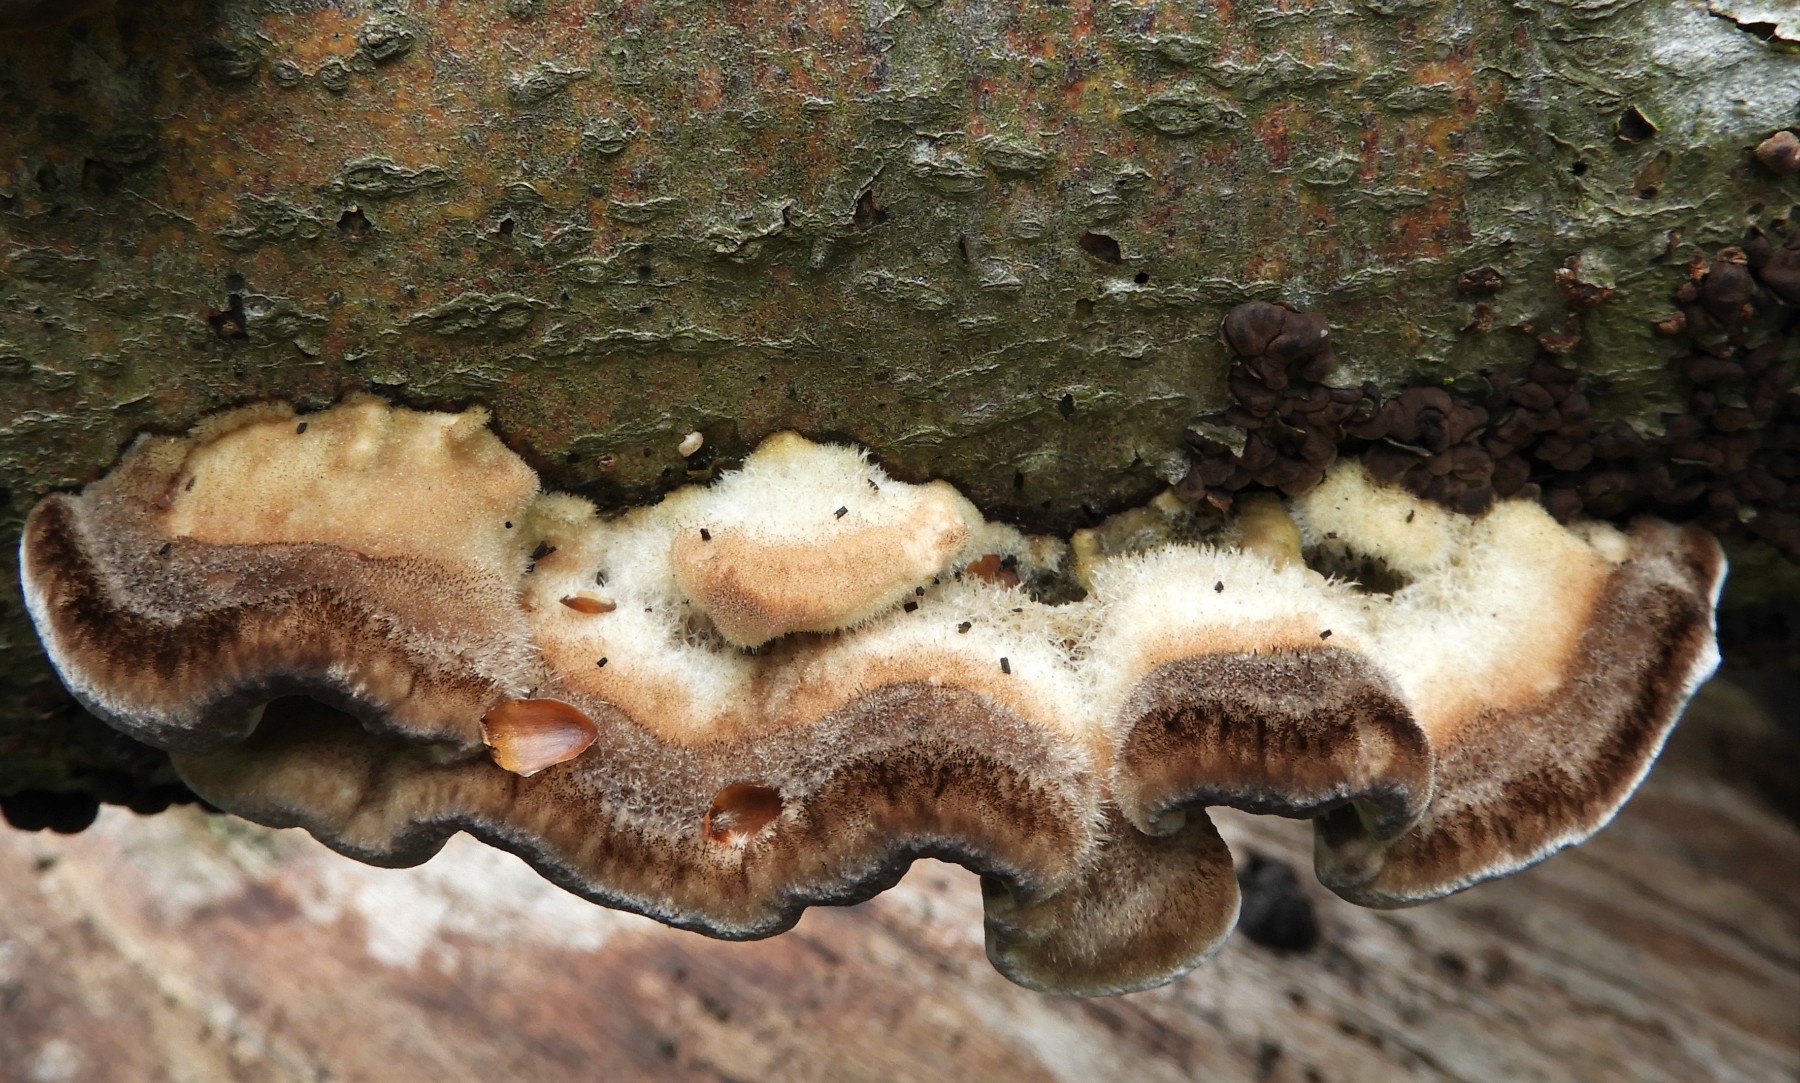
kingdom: Fungi
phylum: Basidiomycota
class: Agaricomycetes
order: Polyporales
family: Polyporaceae
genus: Trametes
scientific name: Trametes hirsuta
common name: håret læderporesvamp
